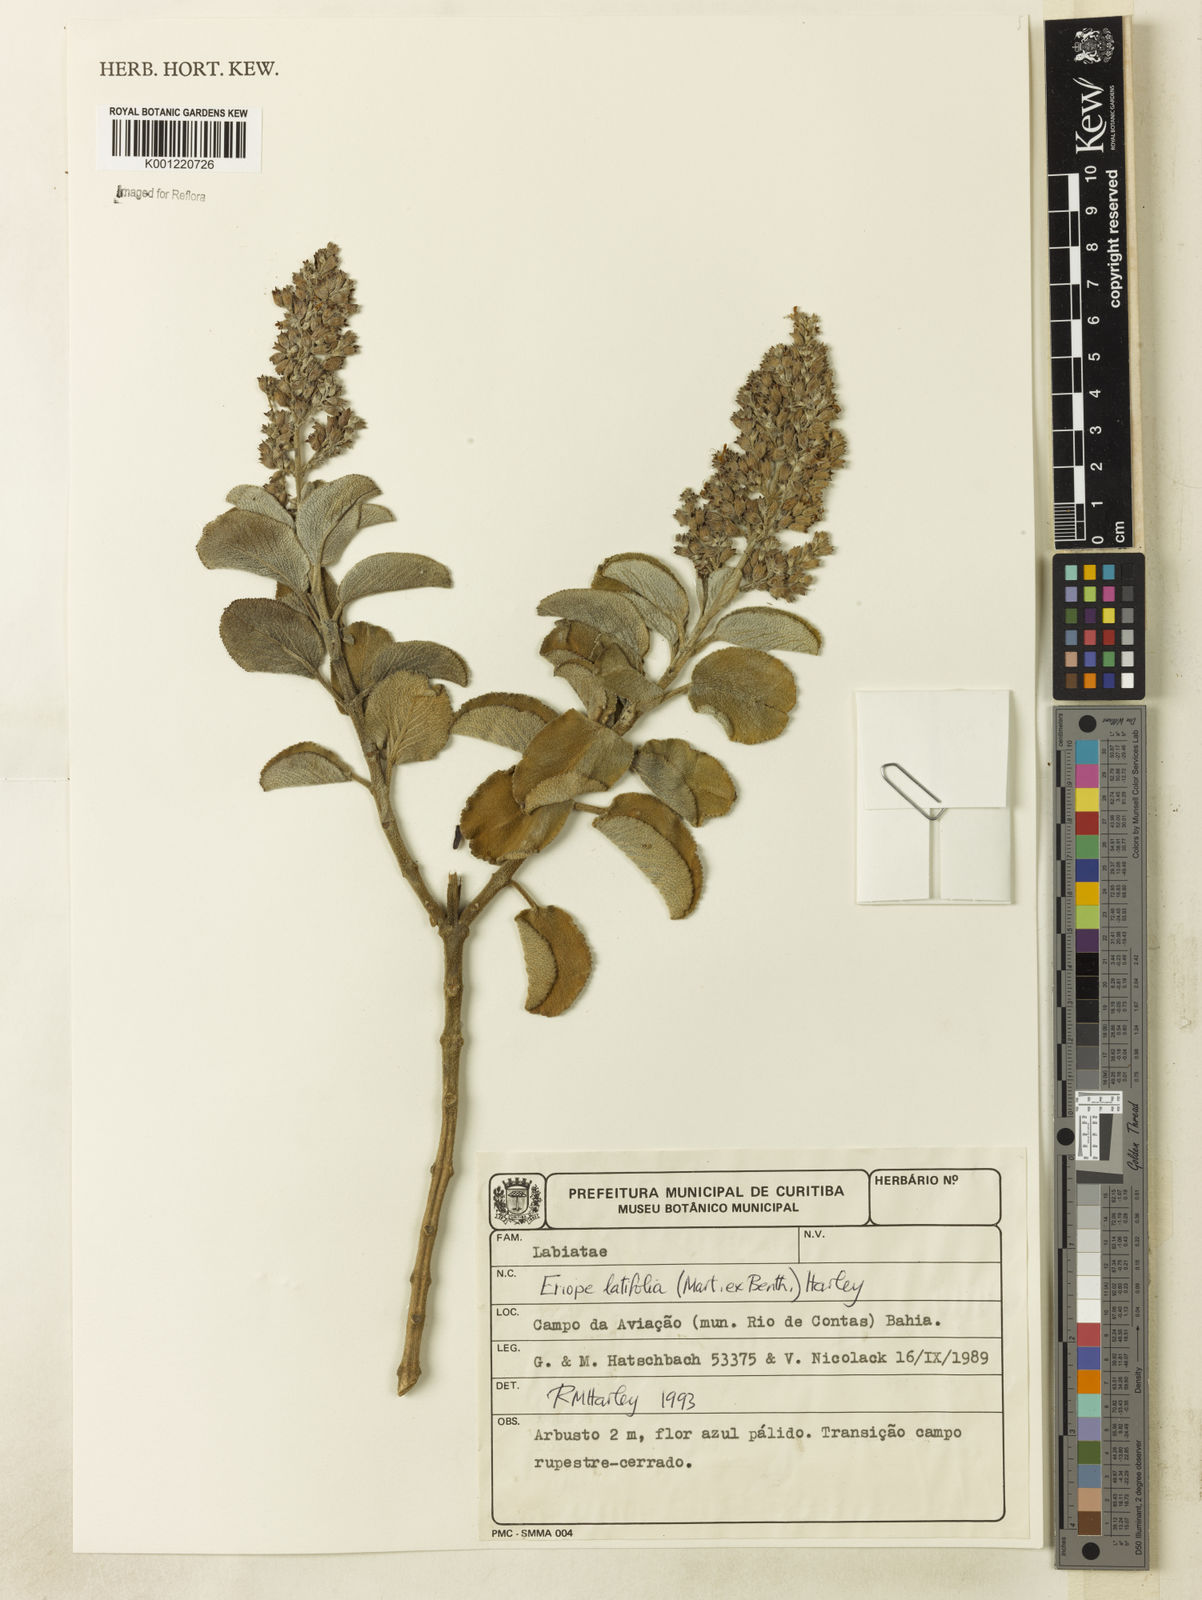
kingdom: Plantae
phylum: Tracheophyta
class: Magnoliopsida
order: Lamiales
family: Lamiaceae
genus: Eriope
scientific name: Eriope latifolia
